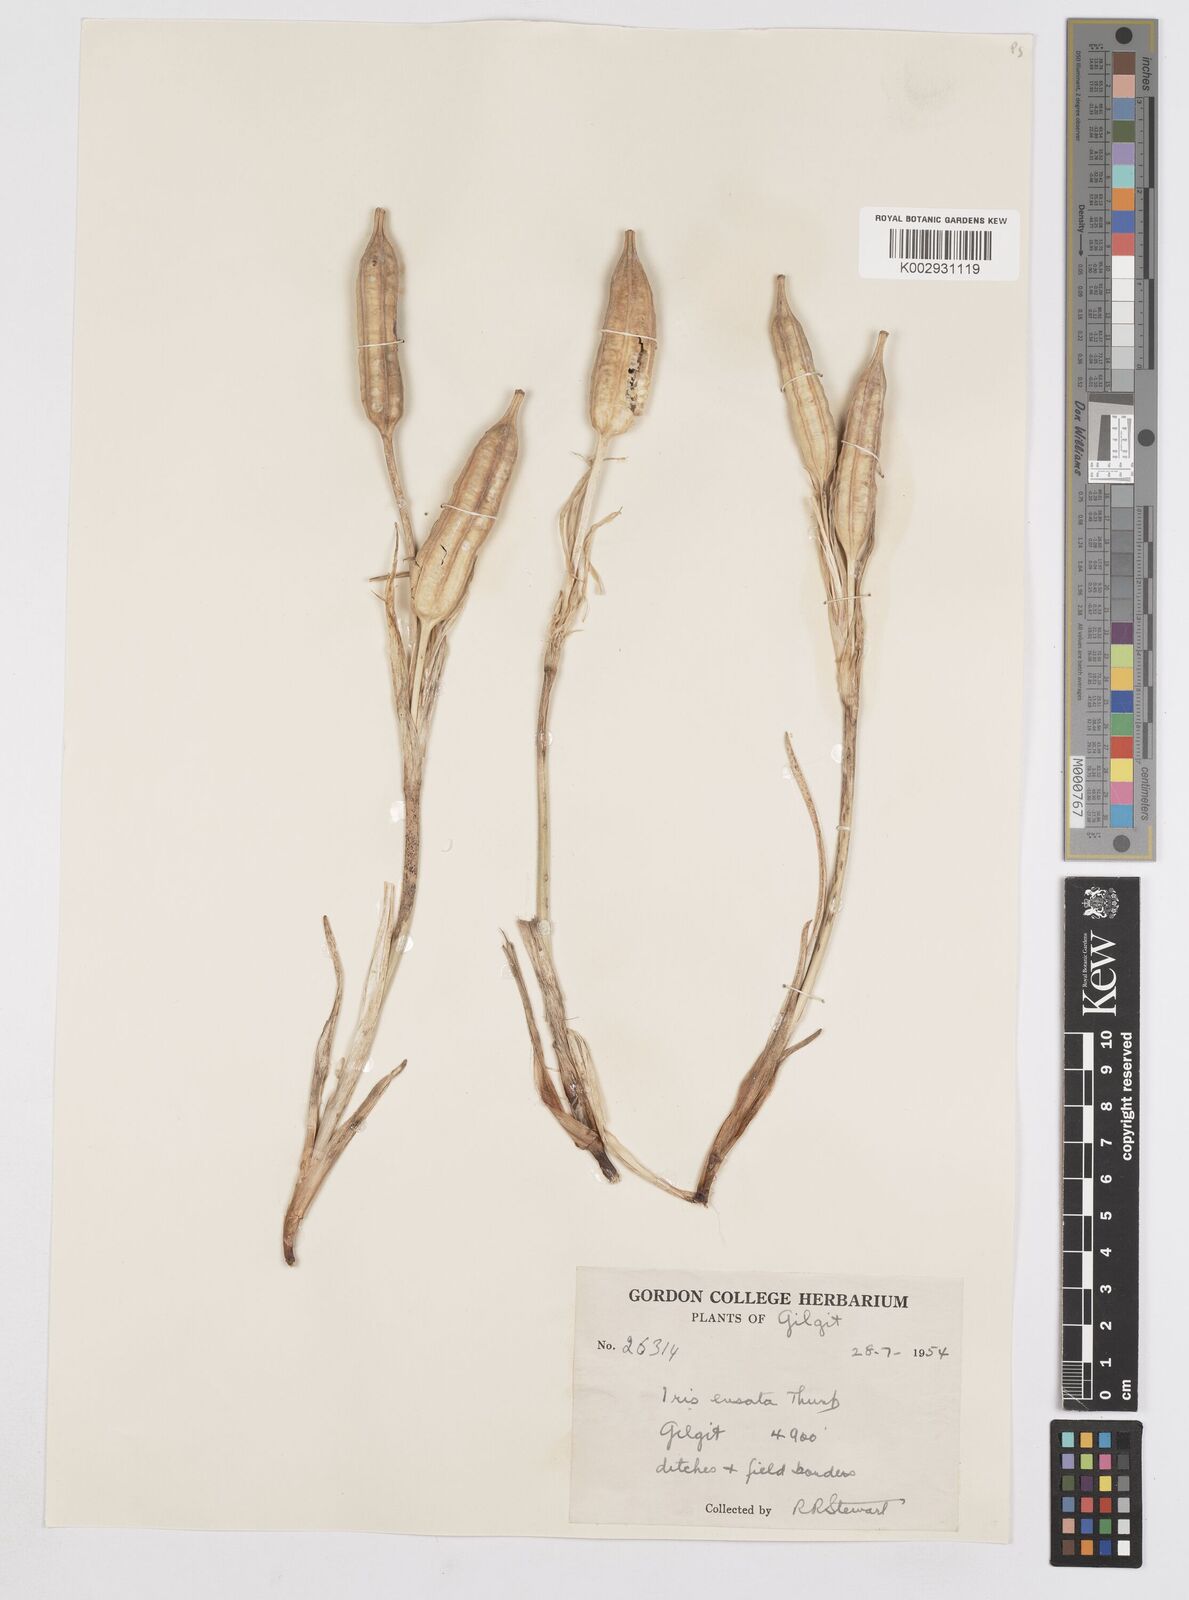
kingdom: Plantae
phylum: Tracheophyta
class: Liliopsida
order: Asparagales
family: Iridaceae
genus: Iris
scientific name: Iris ensata
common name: Beaked iris
